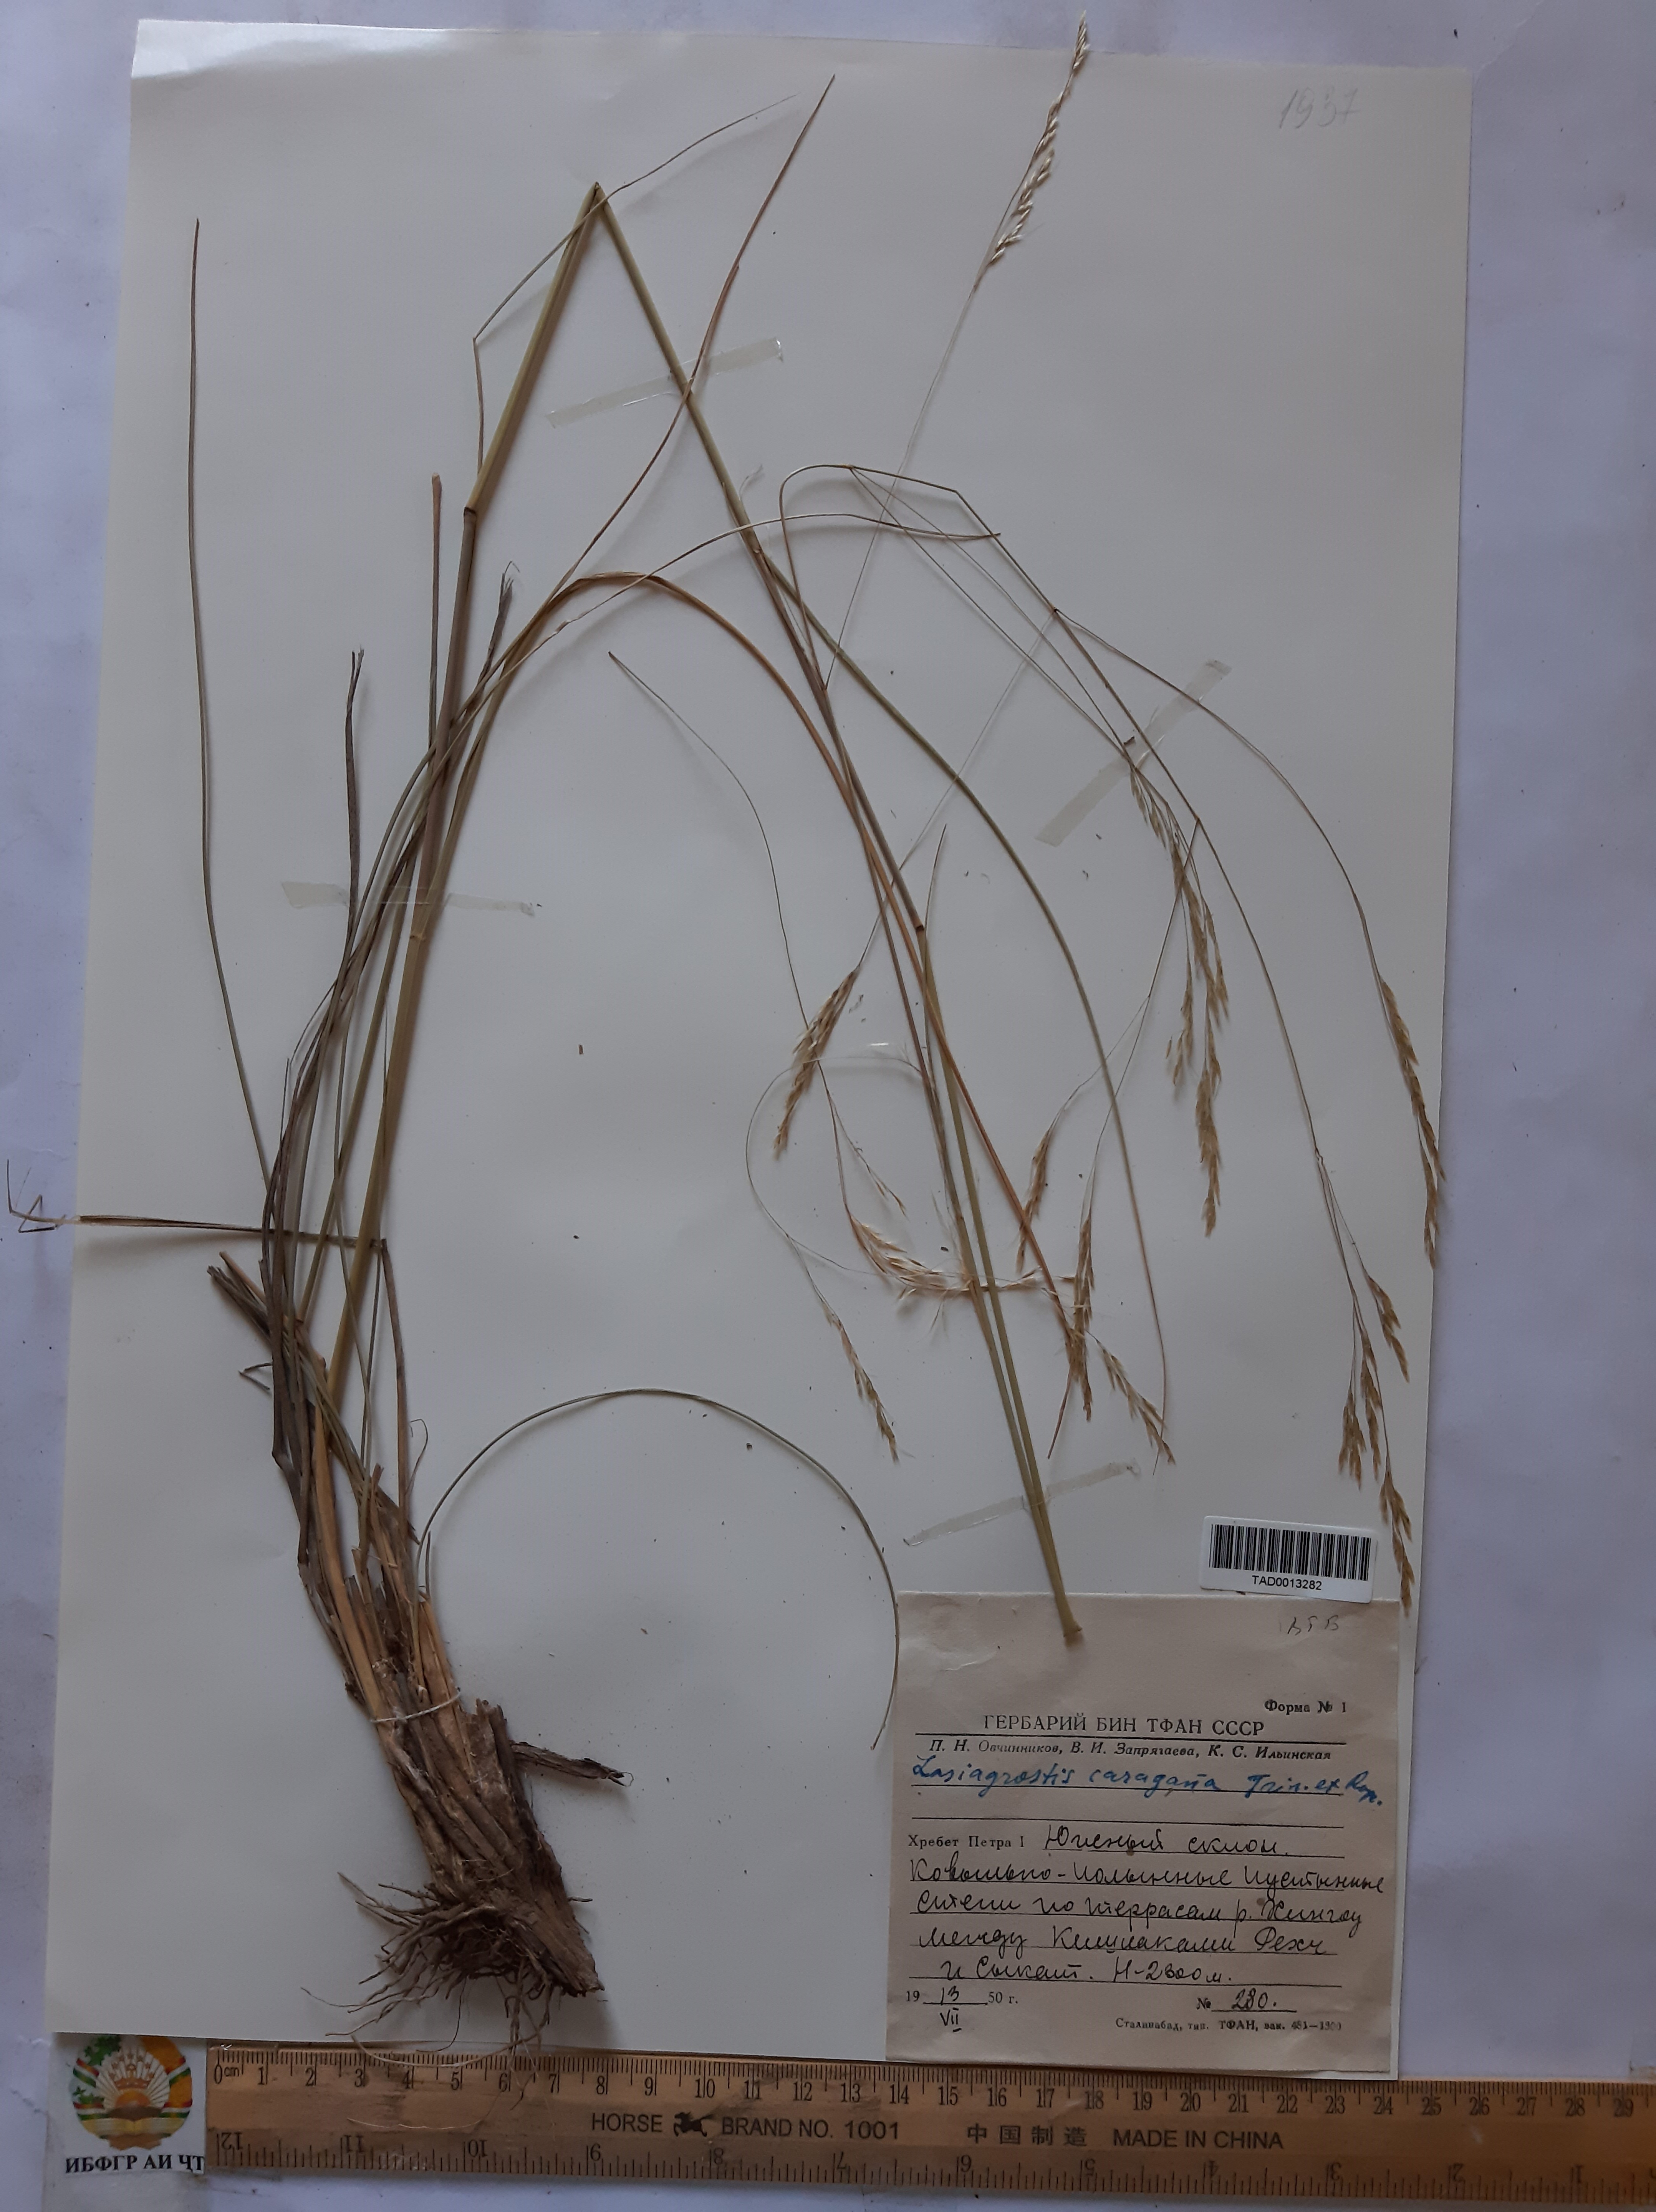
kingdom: Plantae
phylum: Tracheophyta
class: Liliopsida
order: Poales
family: Poaceae
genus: Stipa
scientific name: Stipa conferta
